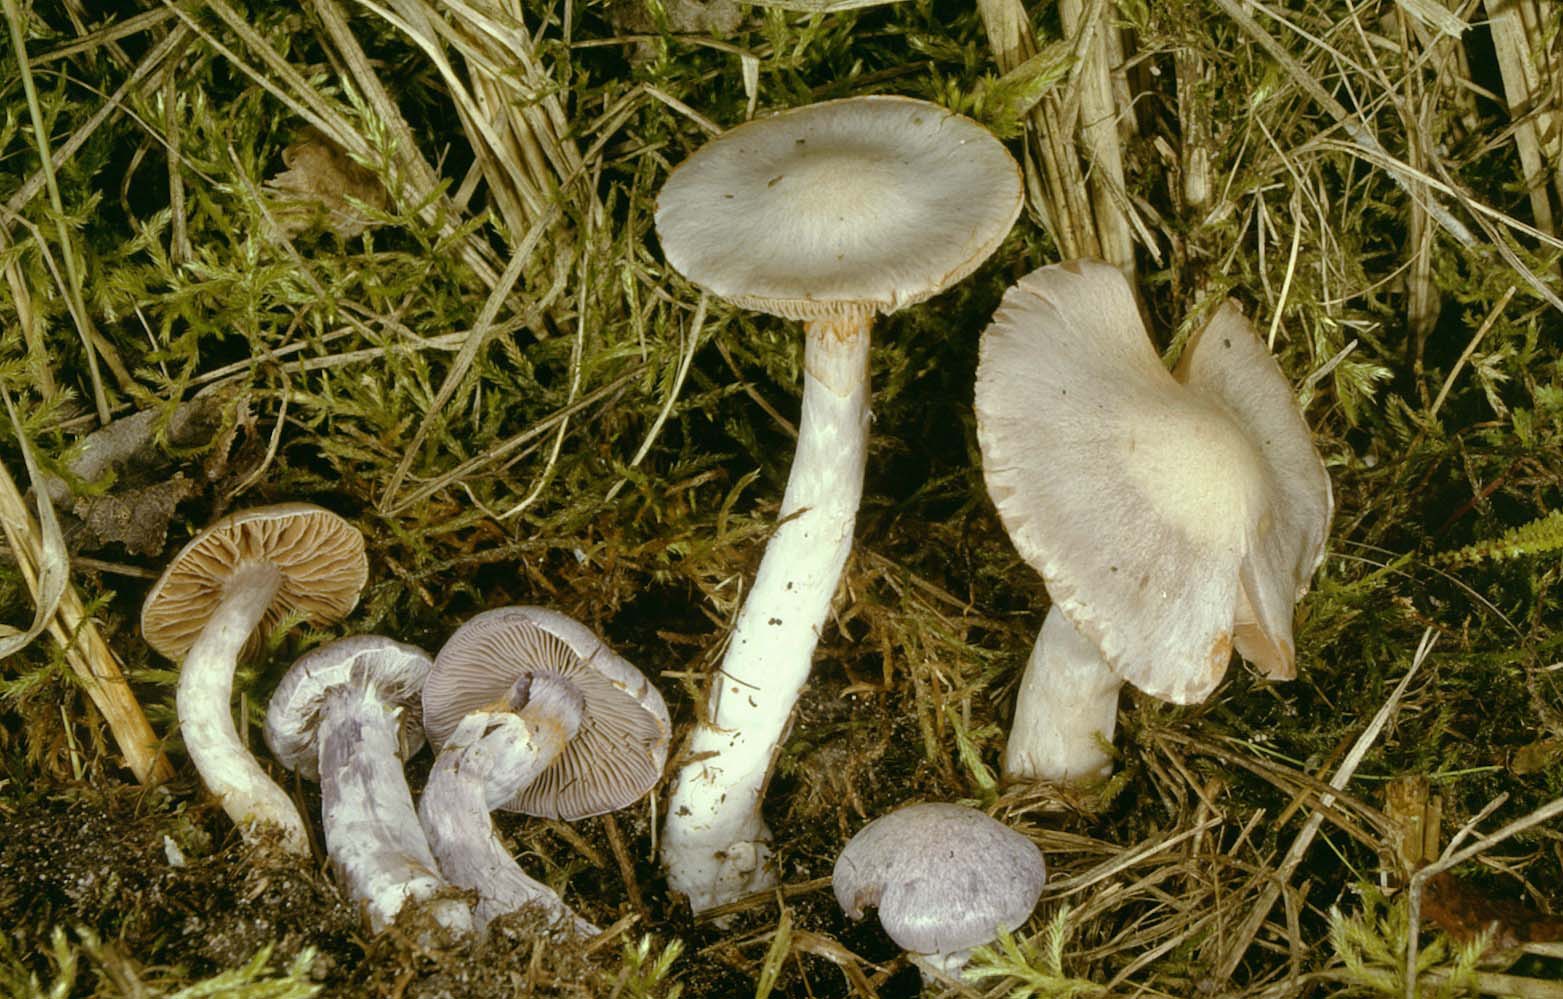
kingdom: Fungi
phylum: Basidiomycota
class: Agaricomycetes
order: Agaricales
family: Cortinariaceae
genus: Cortinarius
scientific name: Cortinarius alboviolaceus
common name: lysviolet slørhat
